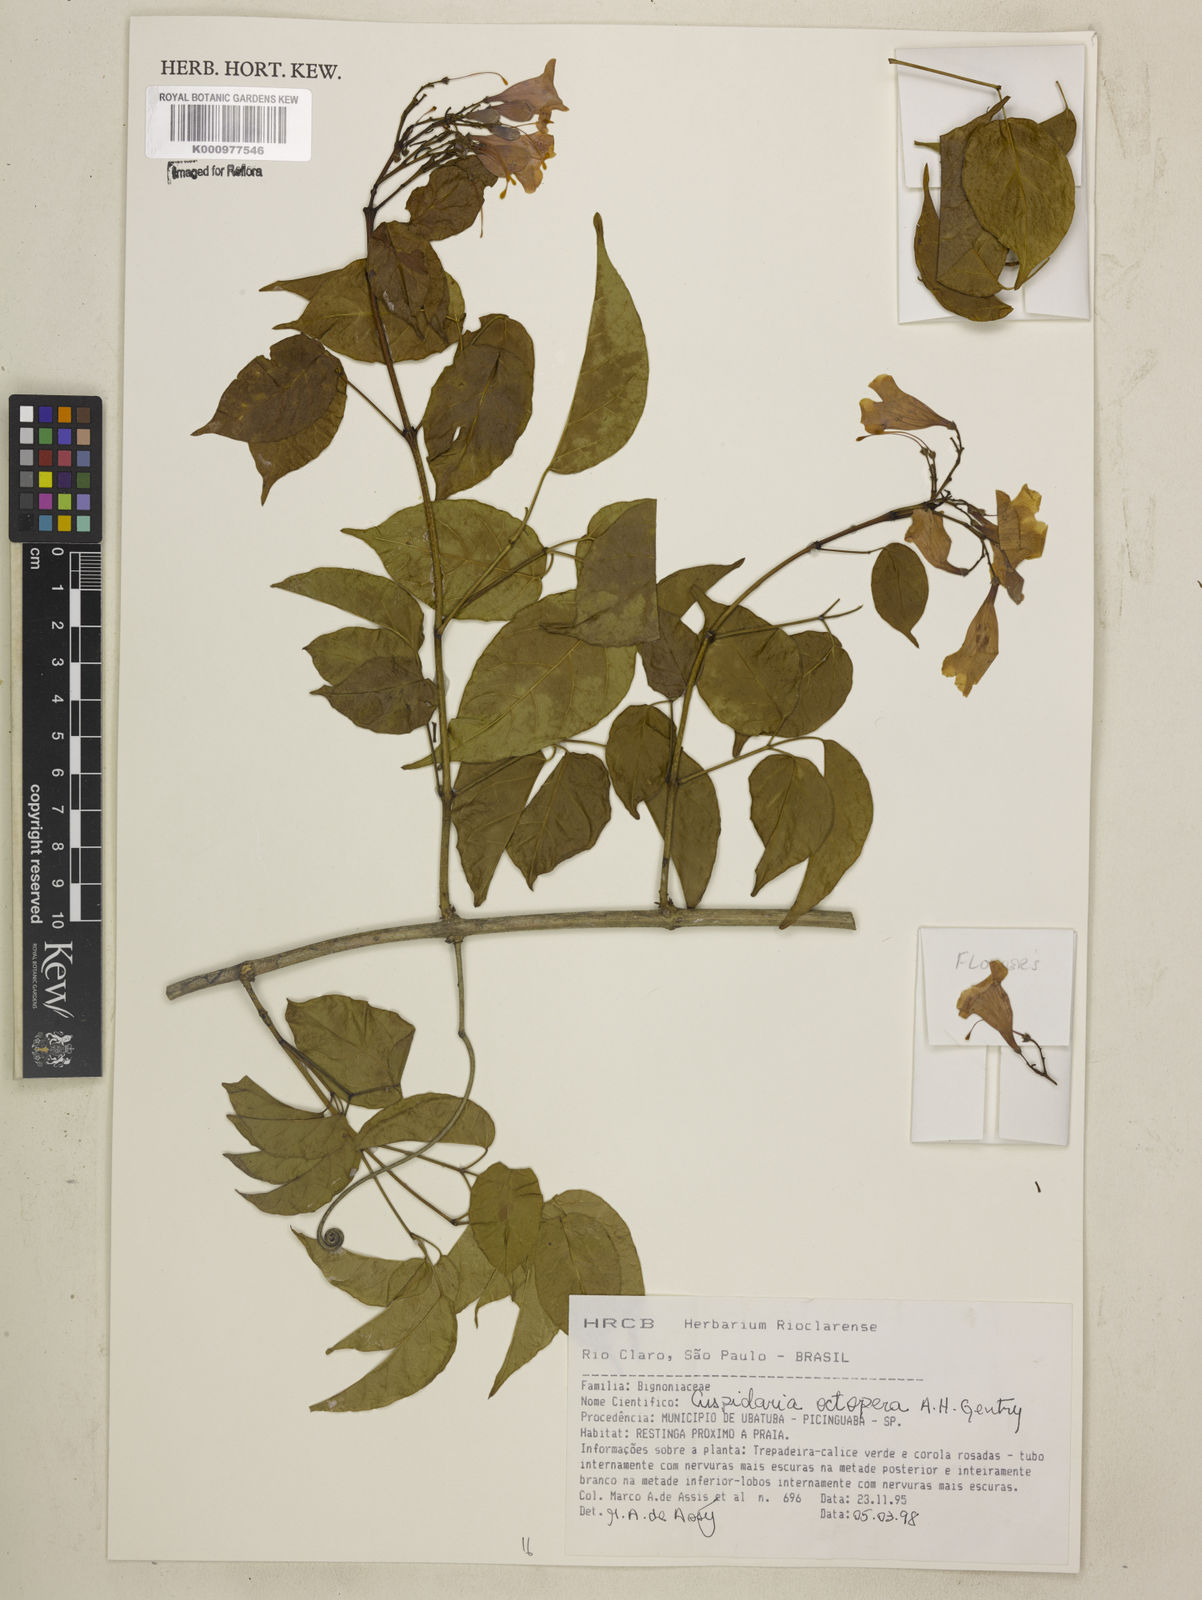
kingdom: Plantae
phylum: Tracheophyta
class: Magnoliopsida
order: Lamiales
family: Bignoniaceae
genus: Cuspidaria
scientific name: Cuspidaria octoptera
